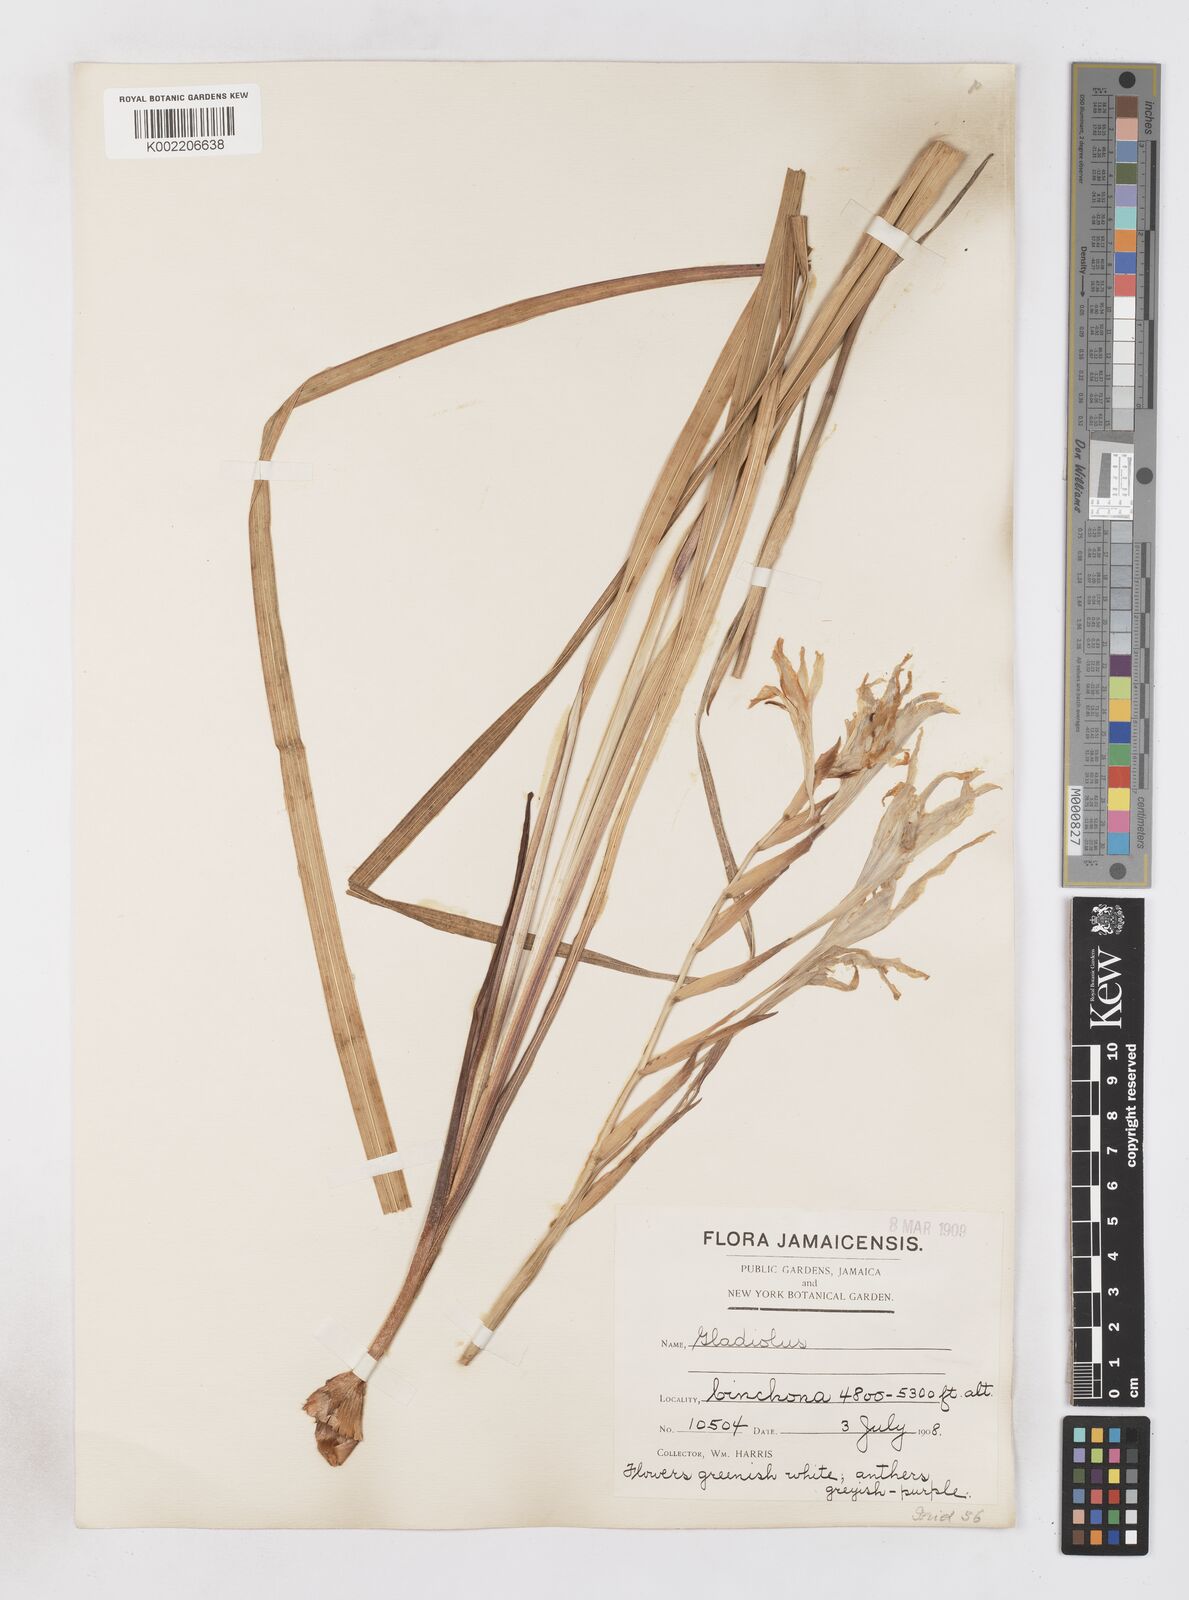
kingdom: Plantae
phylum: Tracheophyta
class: Liliopsida
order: Asparagales
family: Iridaceae
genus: Gladiolus
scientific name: Gladiolus
